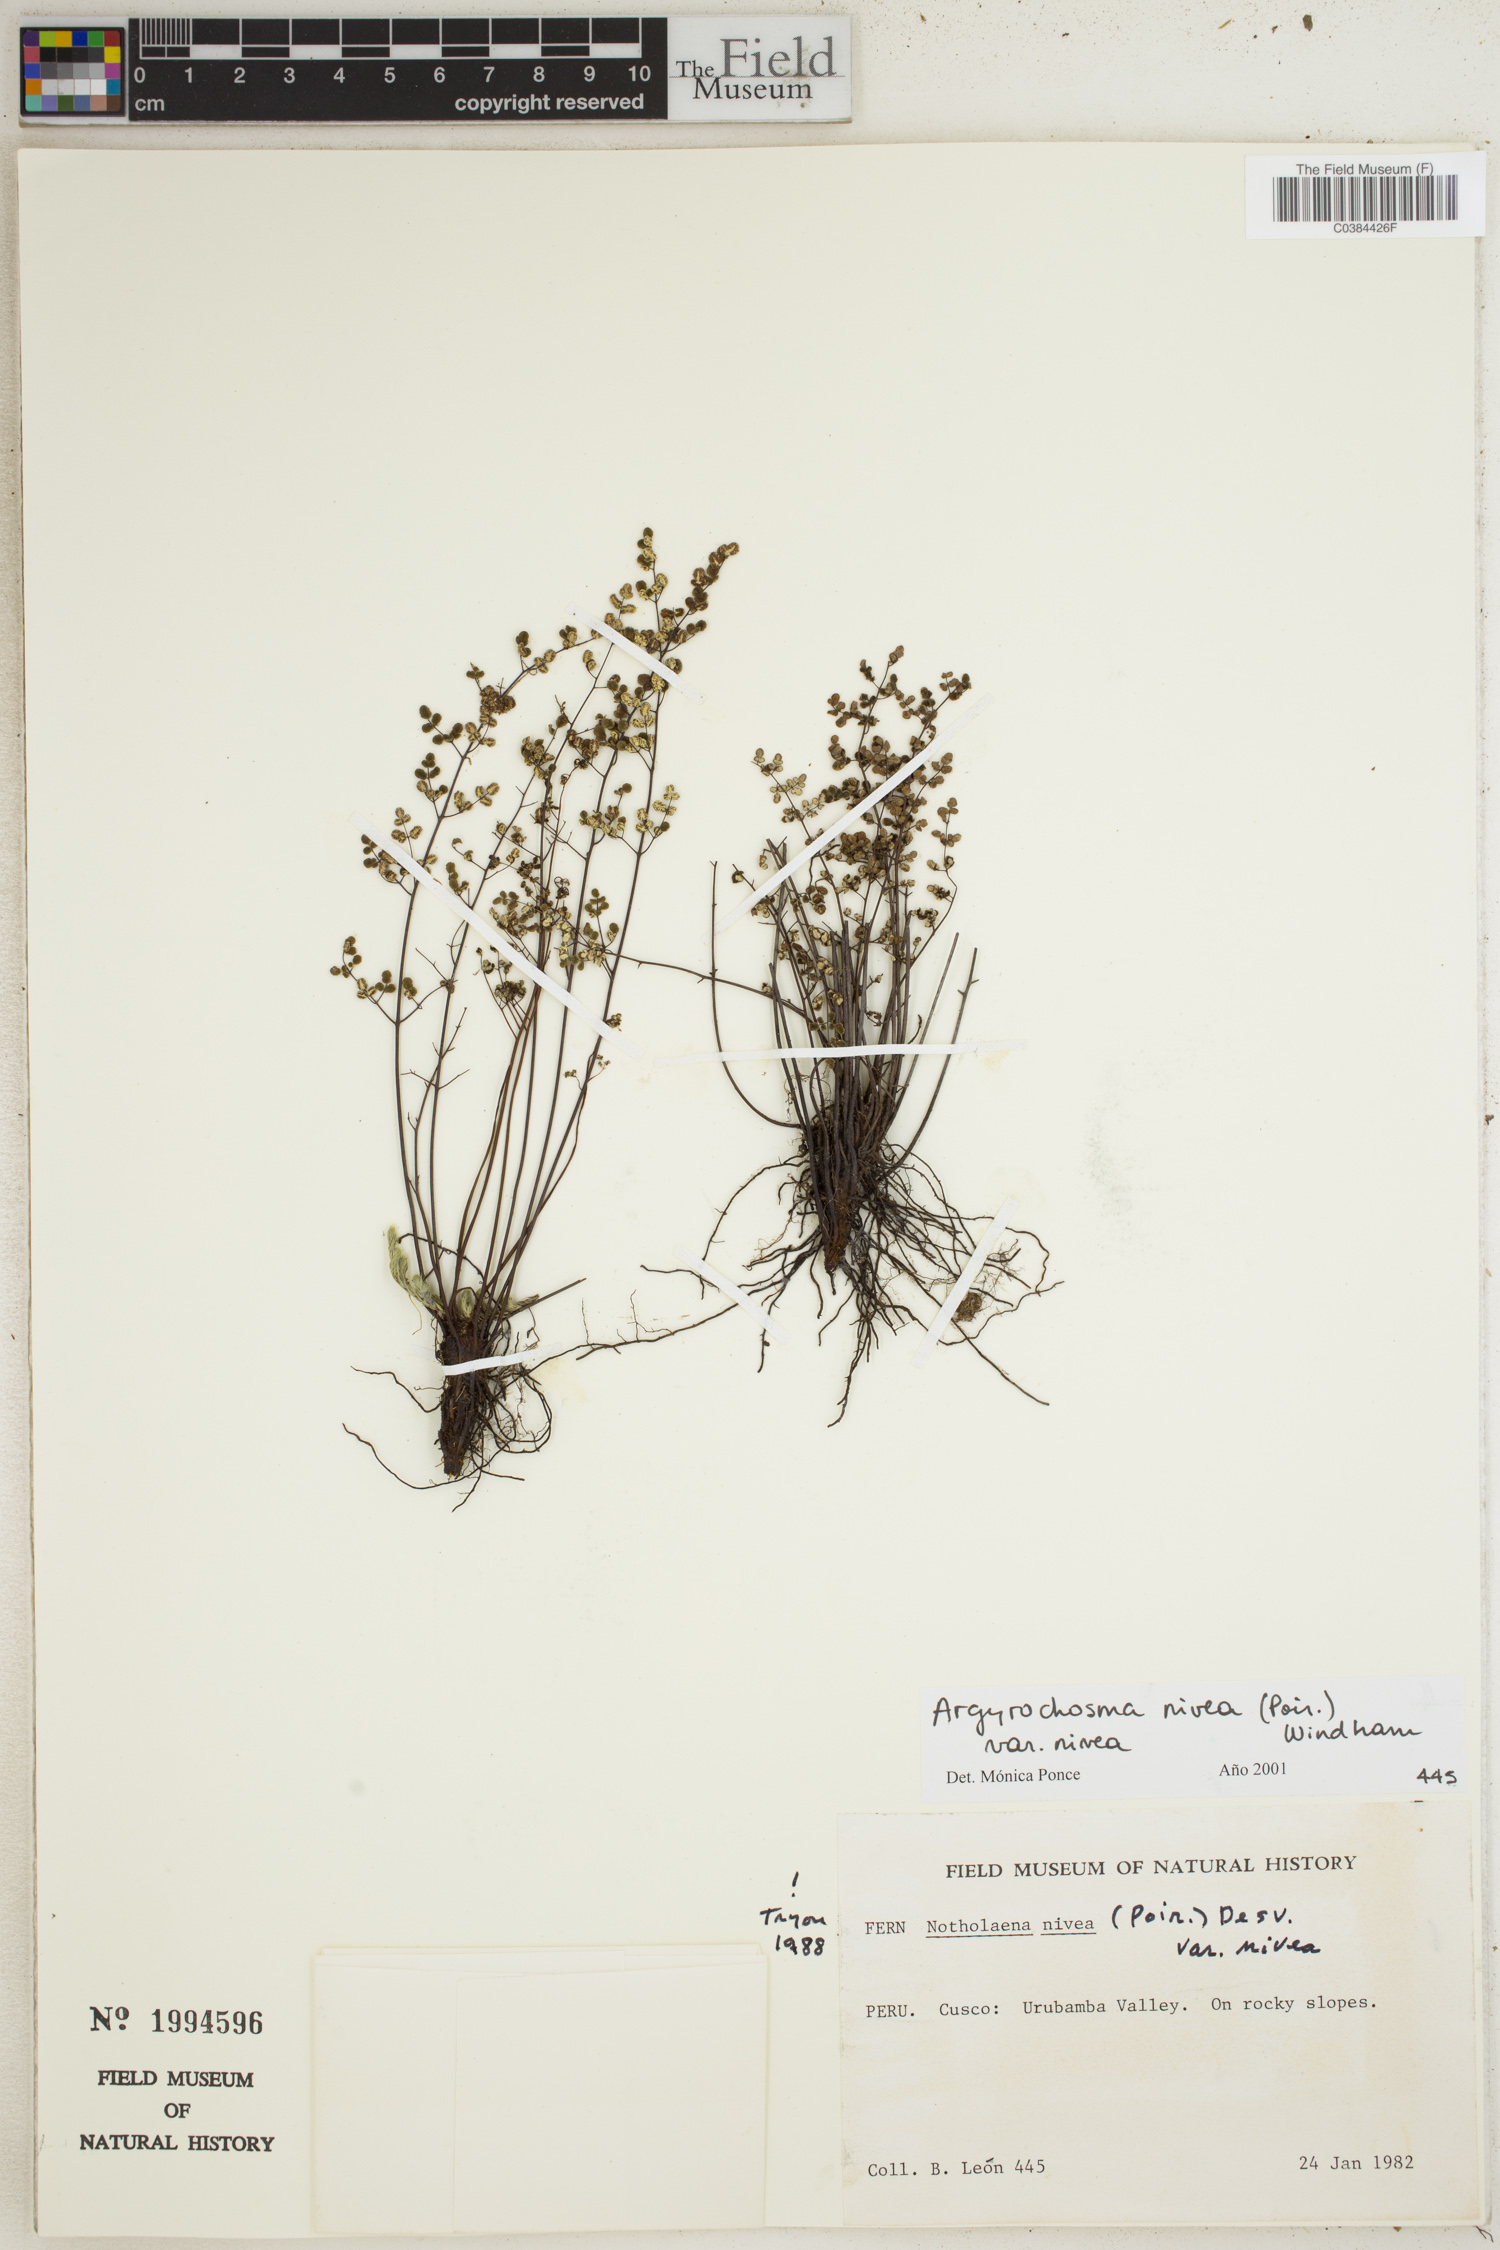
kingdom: Plantae
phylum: Tracheophyta
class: Polypodiopsida
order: Polypodiales
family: Pteridaceae
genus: Argyrochosma
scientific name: Argyrochosma nivea
